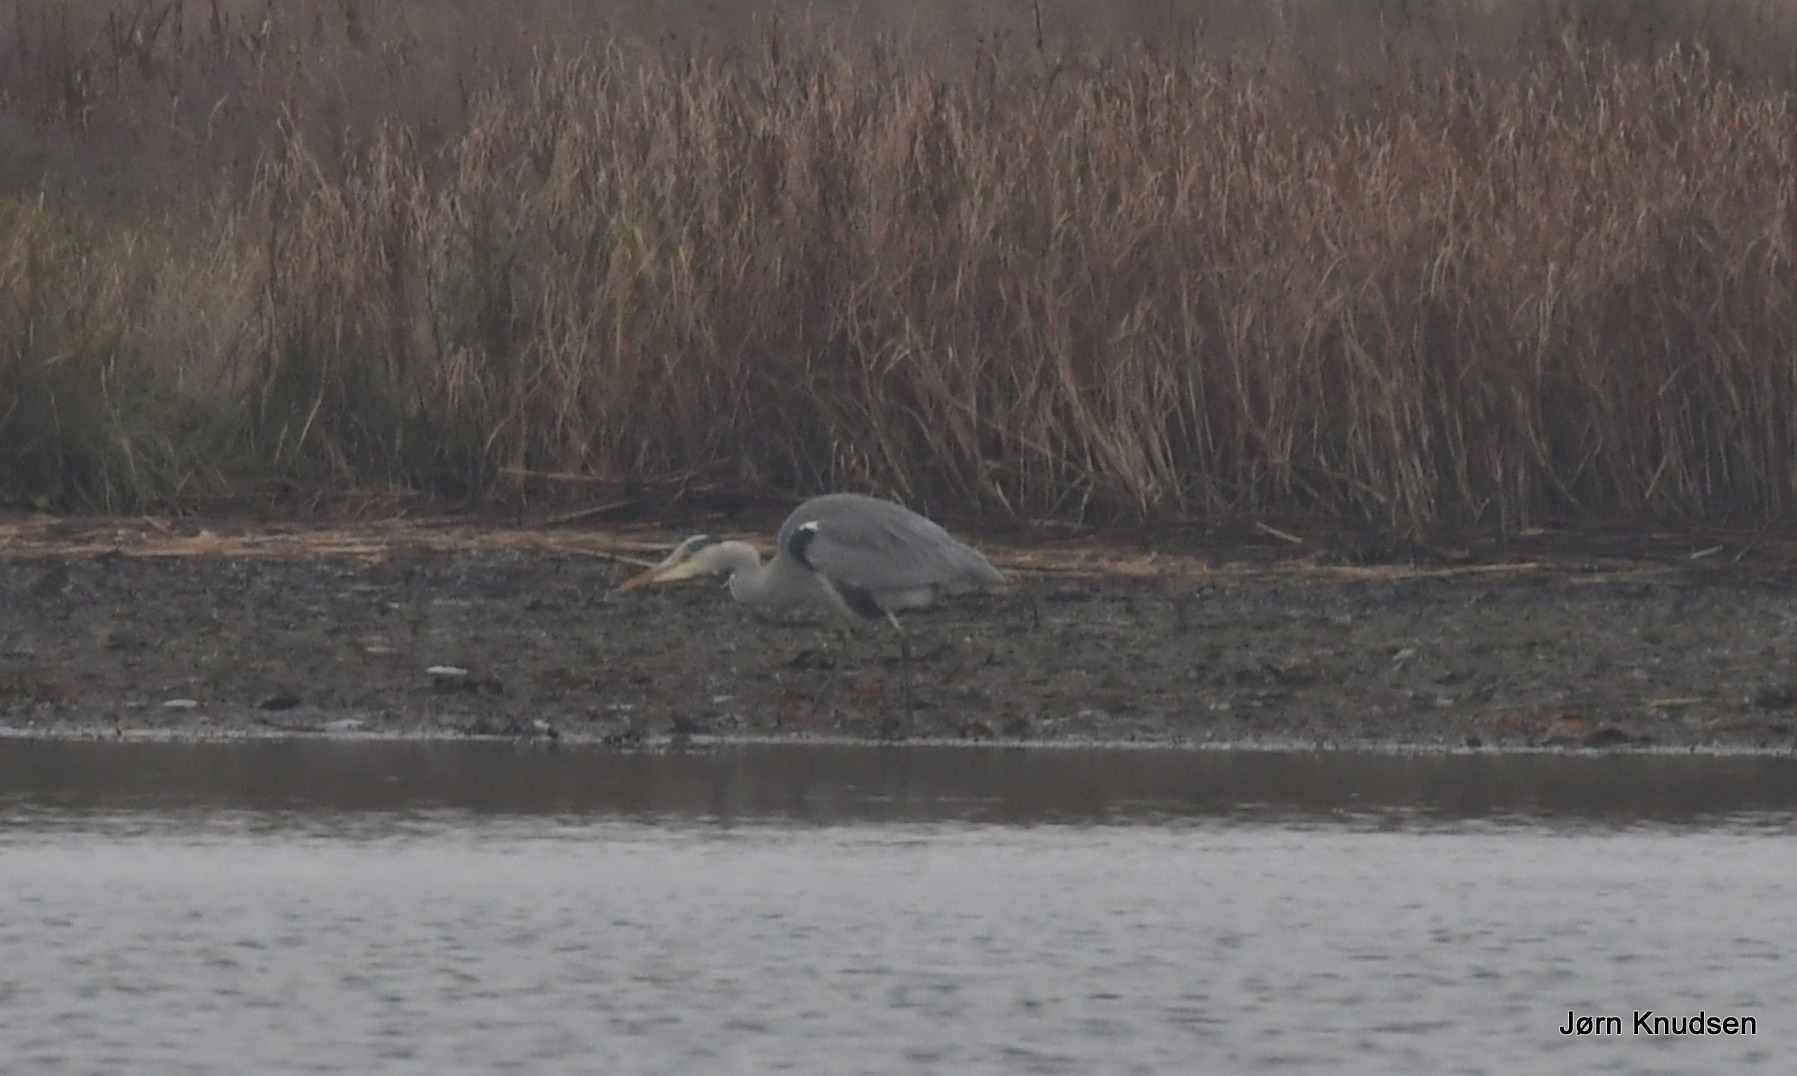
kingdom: Animalia
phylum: Chordata
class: Aves
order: Pelecaniformes
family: Ardeidae
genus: Ardea
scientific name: Ardea cinerea
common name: Fiskehejre
